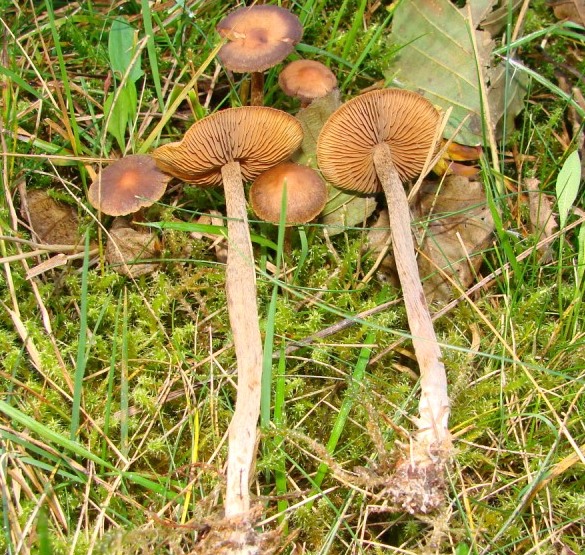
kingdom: Fungi
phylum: Basidiomycota
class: Agaricomycetes
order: Agaricales
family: Hymenogastraceae
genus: Naucoria
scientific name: Naucoria amarescens
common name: bitter knaphat
